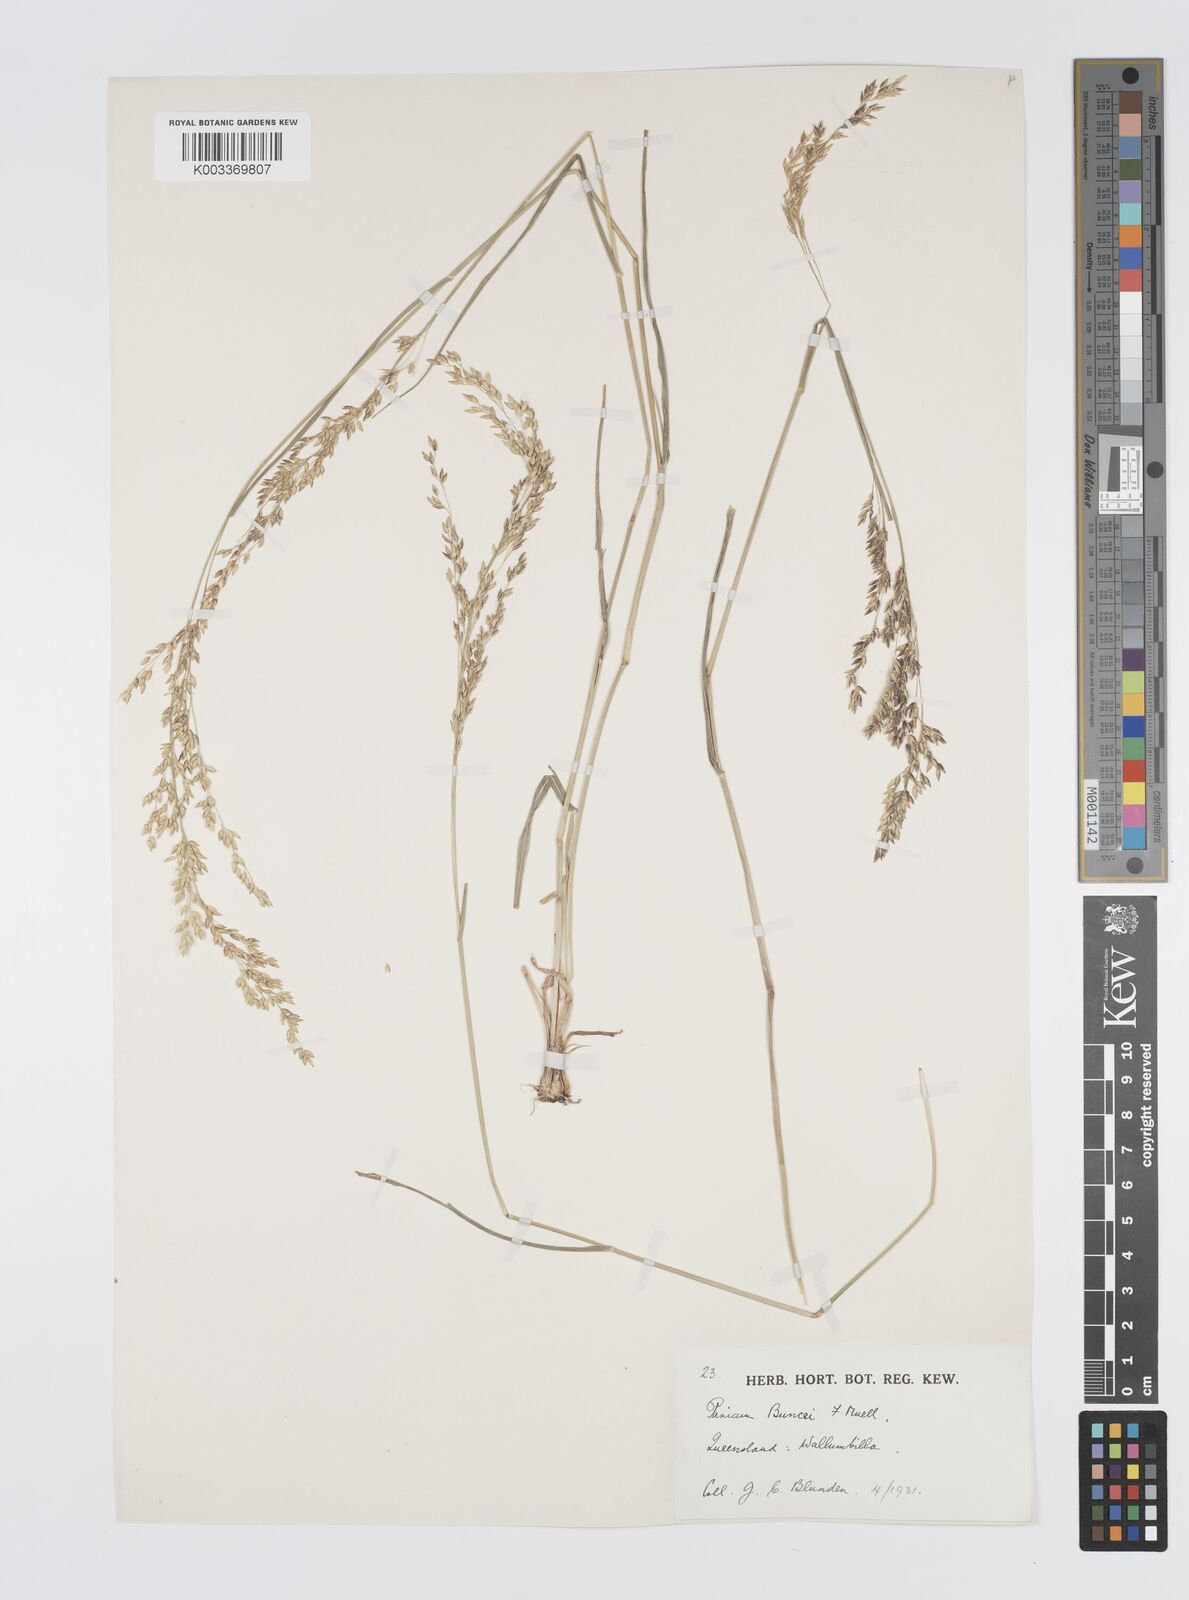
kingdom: Plantae
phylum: Tracheophyta
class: Liliopsida
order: Poales
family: Poaceae
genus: Panicum
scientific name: Panicum buncei
